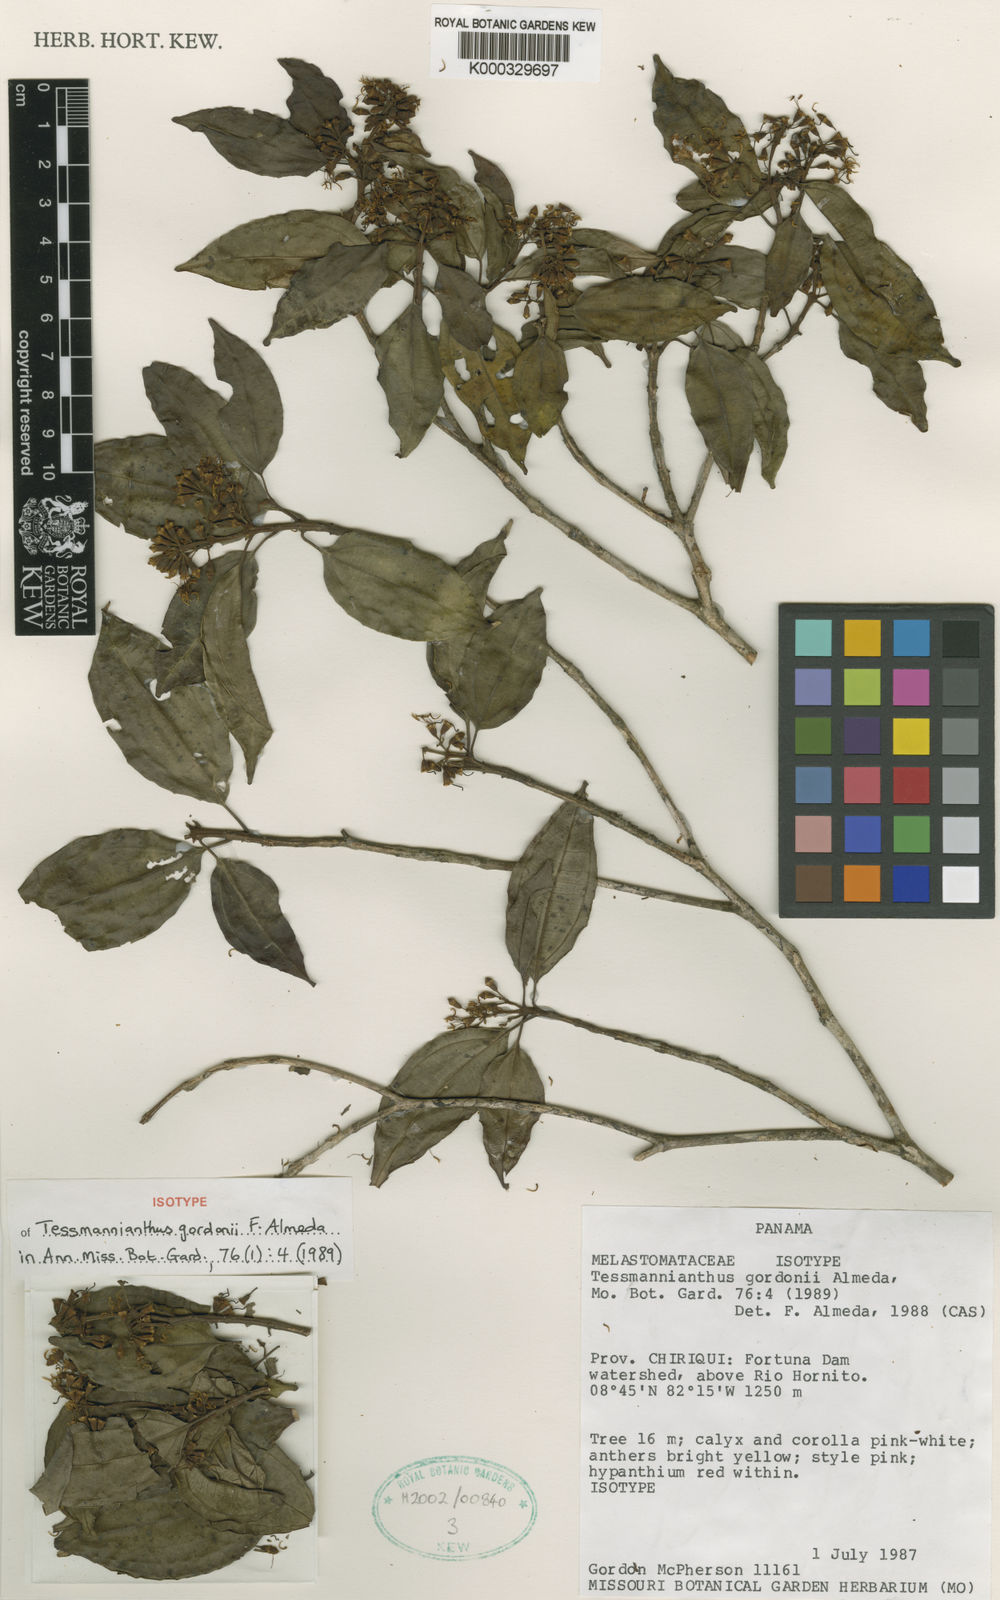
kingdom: Plantae
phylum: Tracheophyta
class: Magnoliopsida
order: Myrtales
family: Melastomataceae
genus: Tessmannianthus
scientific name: Tessmannianthus gordonii
